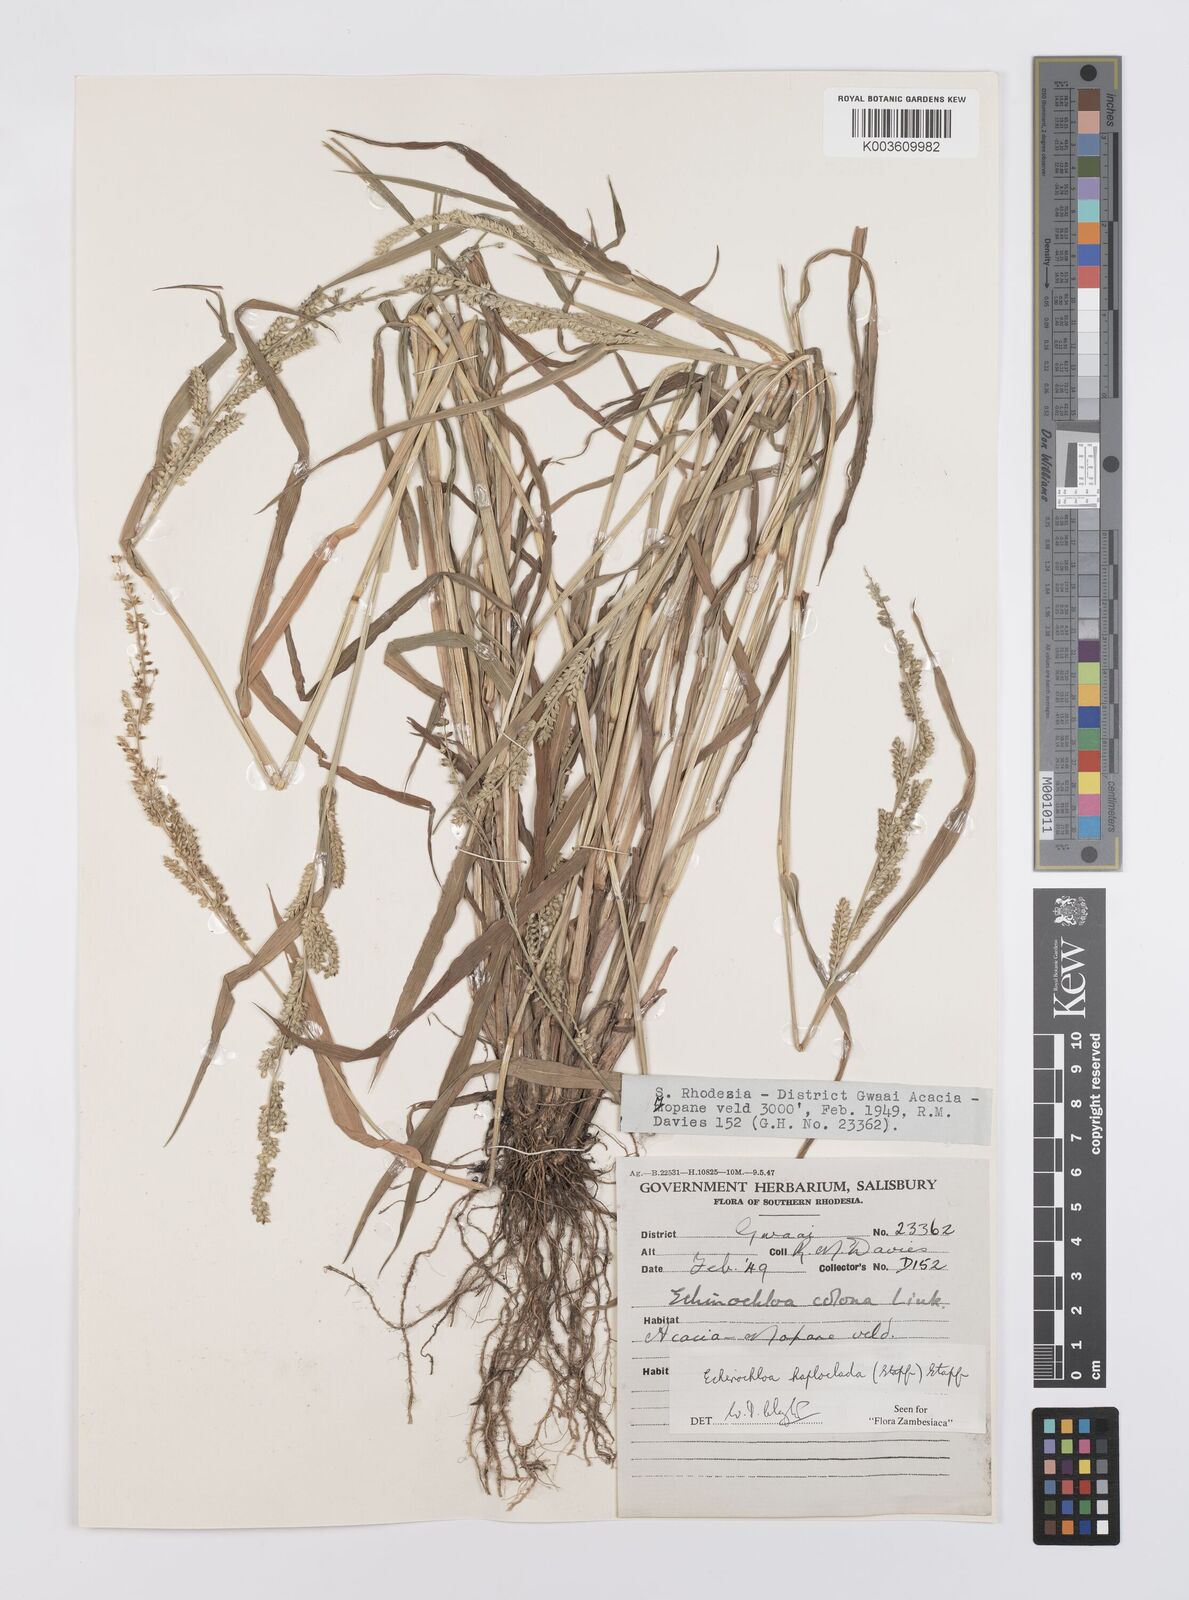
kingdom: Plantae
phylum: Tracheophyta
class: Liliopsida
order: Poales
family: Poaceae
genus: Echinochloa
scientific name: Echinochloa haploclada
